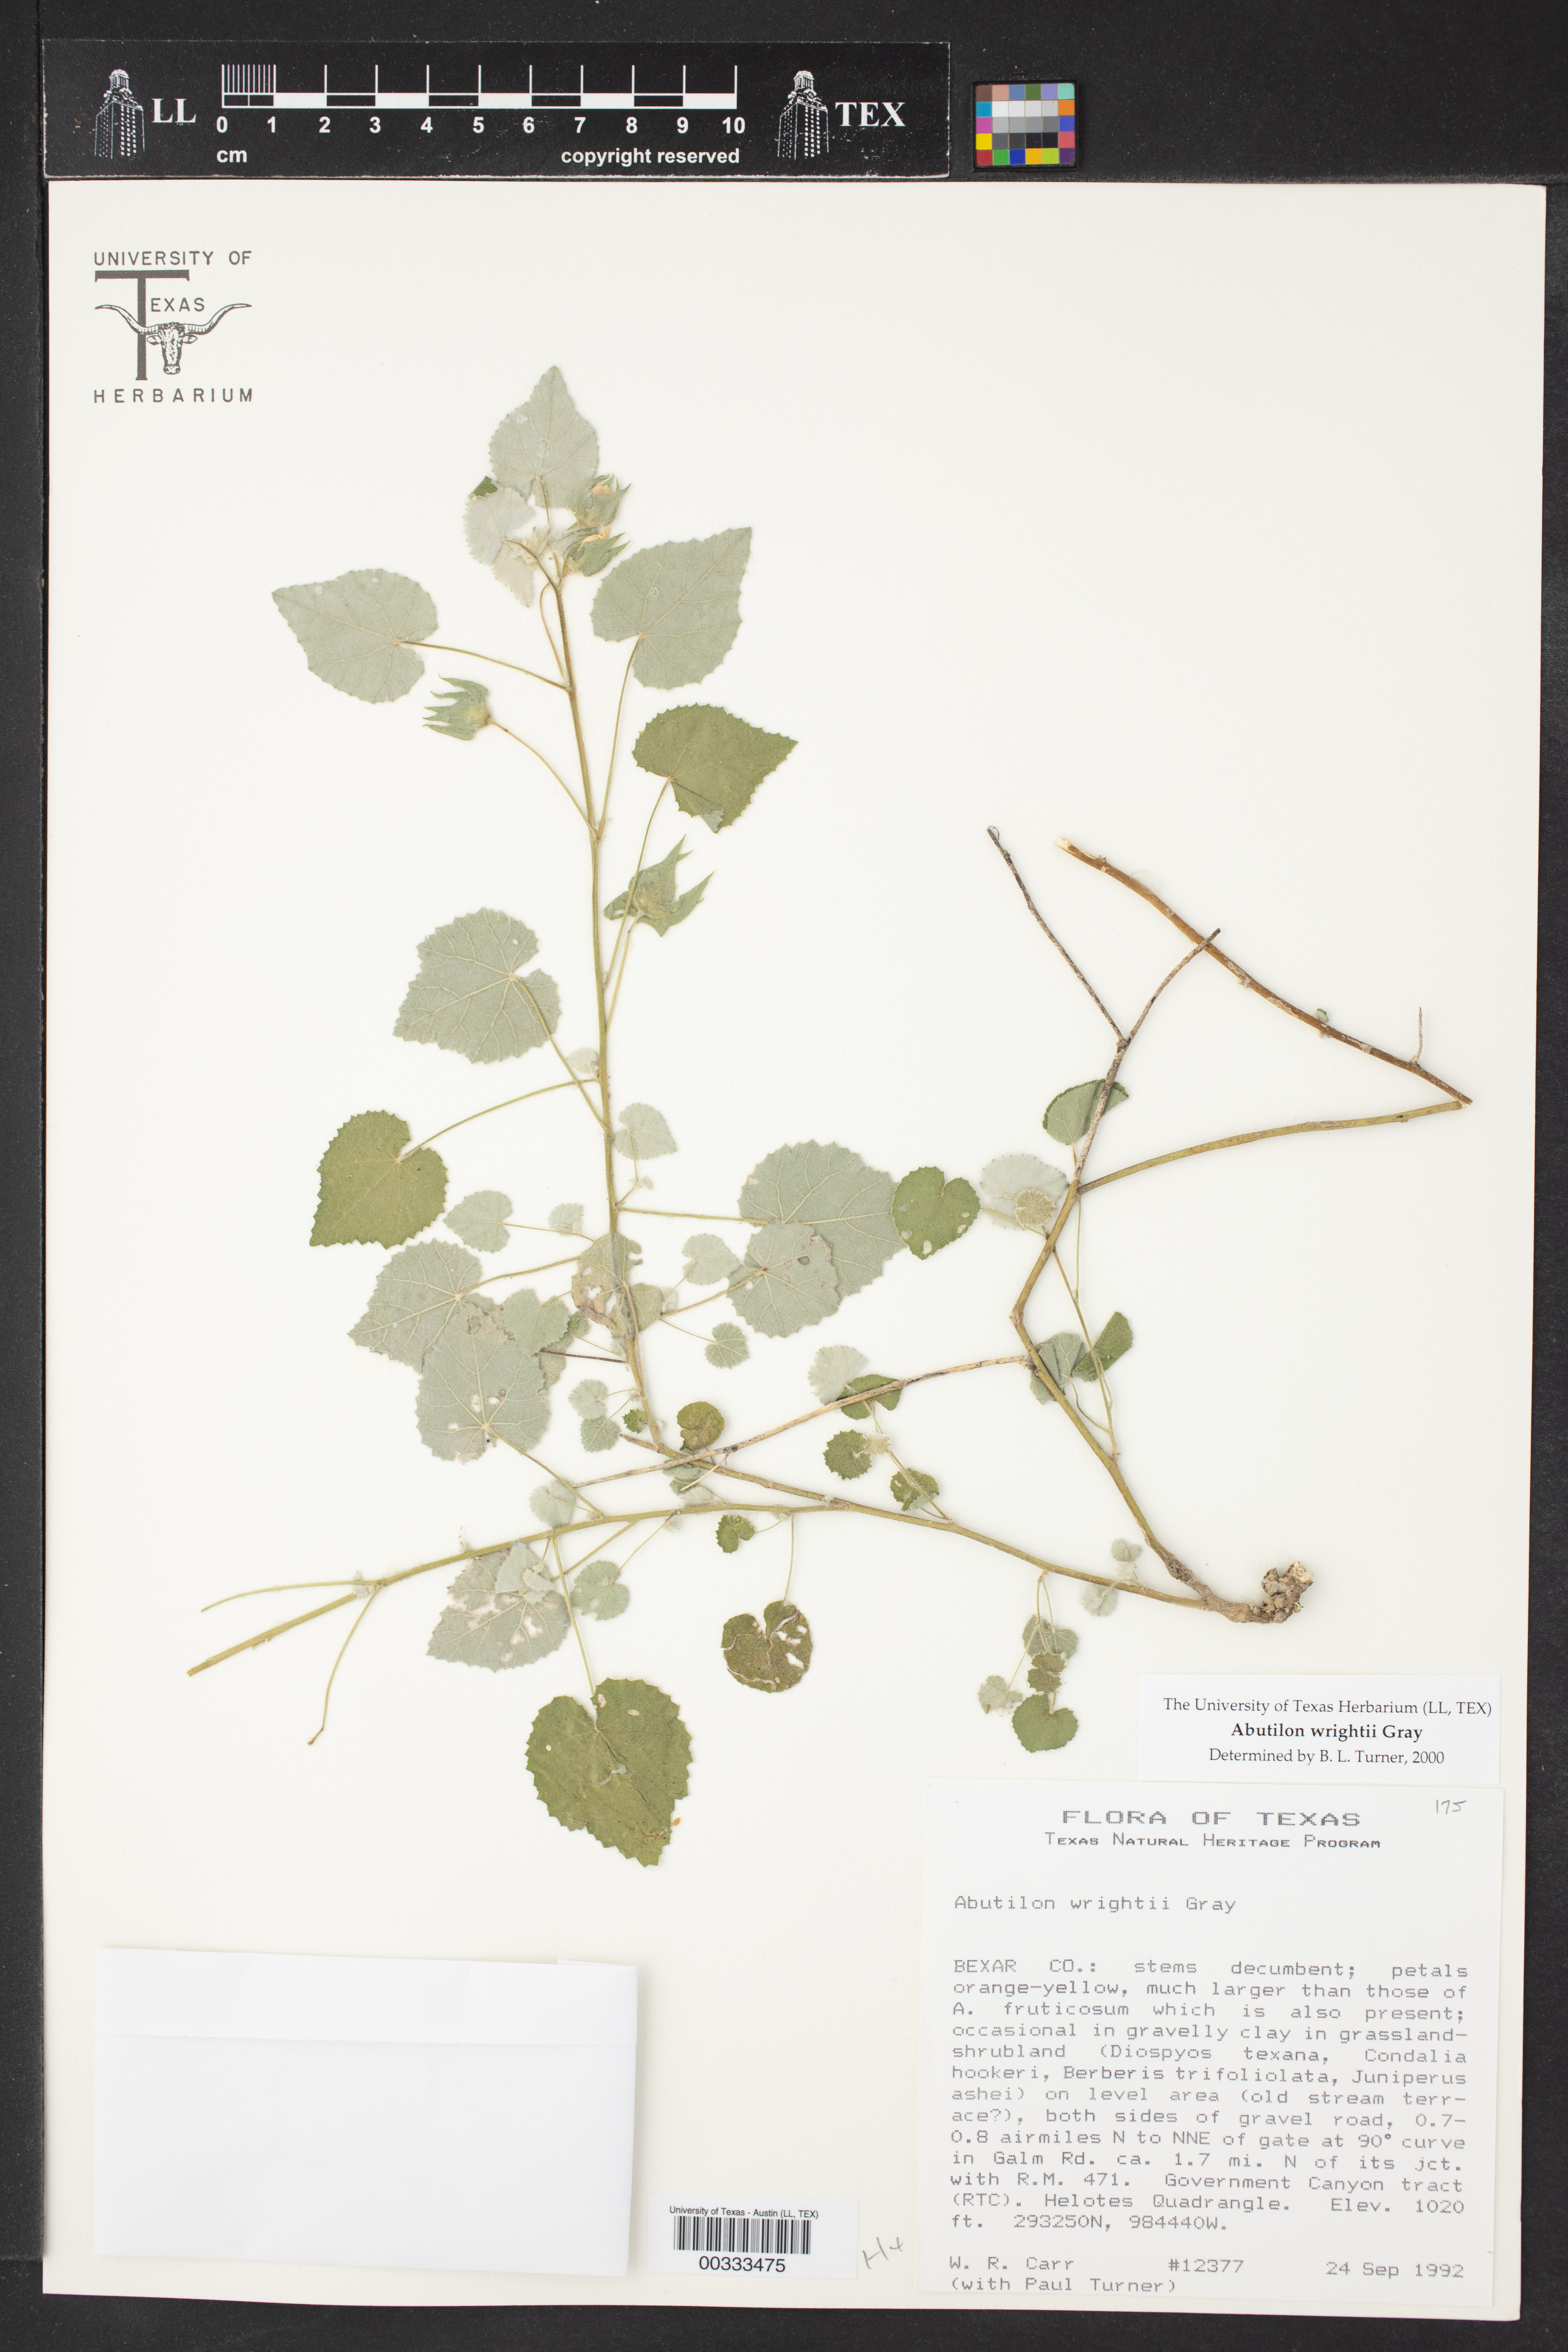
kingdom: Plantae
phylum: Tracheophyta
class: Magnoliopsida
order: Malvales
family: Malvaceae
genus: Abutilon
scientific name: Abutilon wrightii
